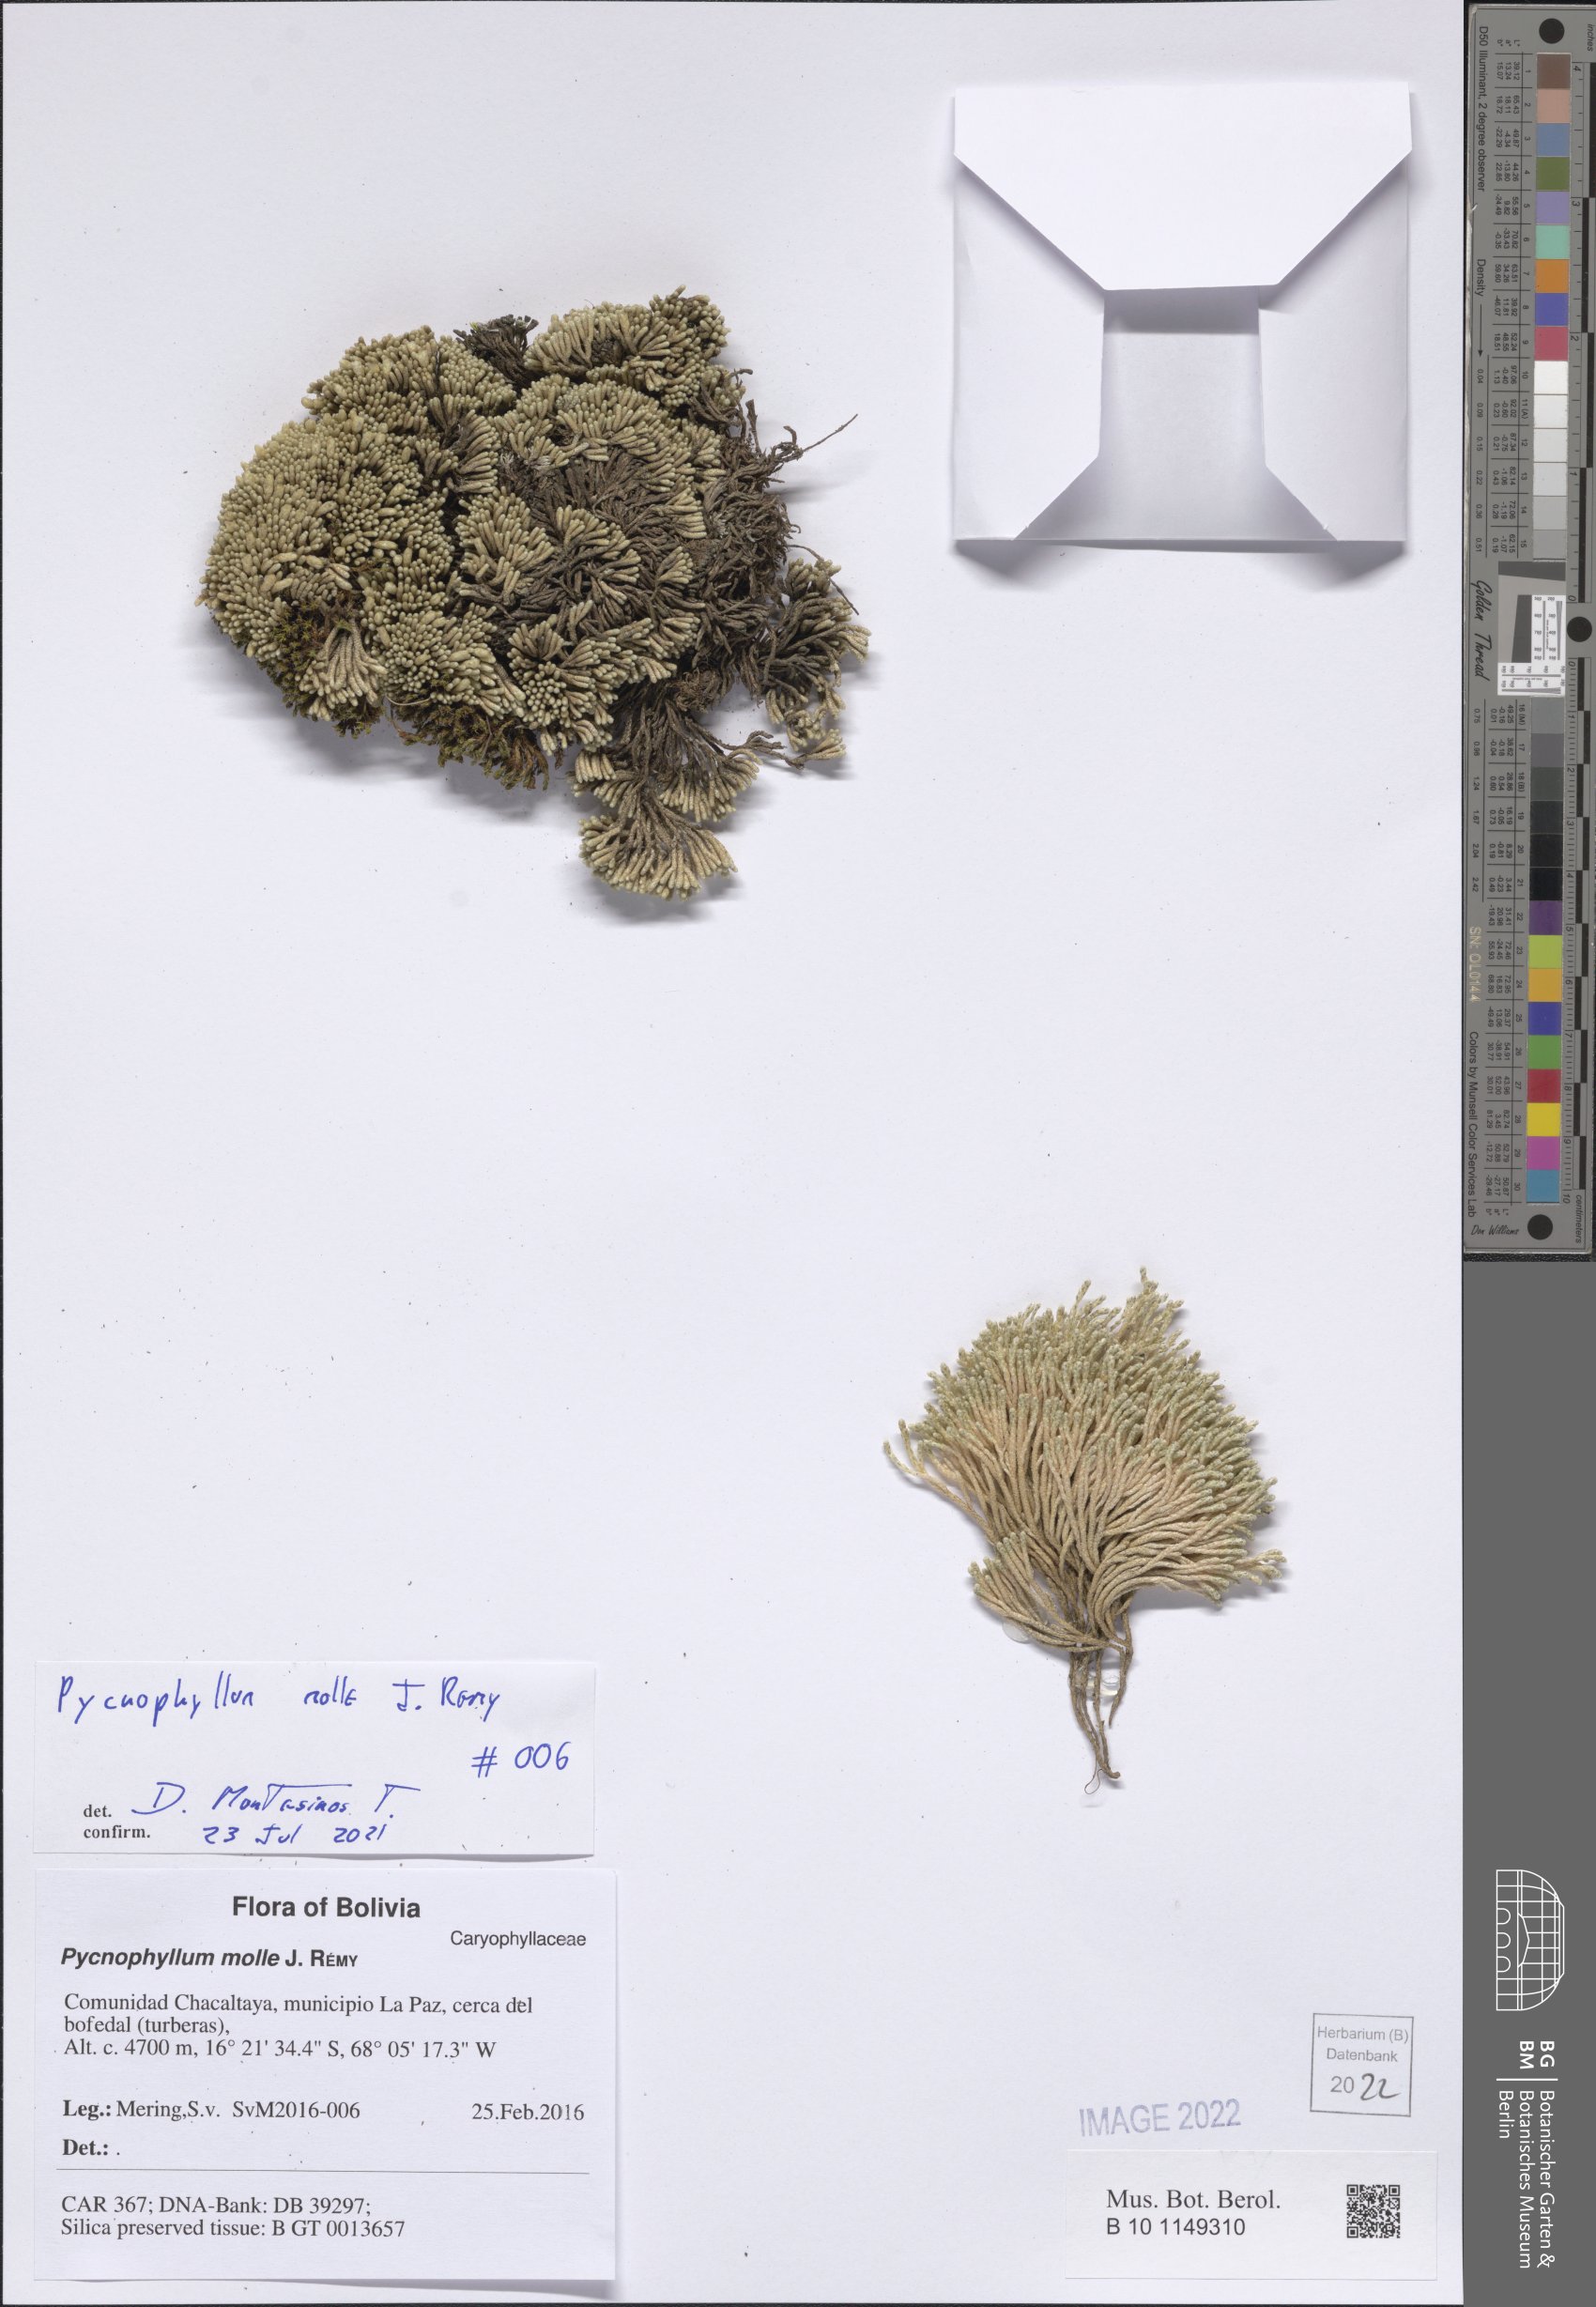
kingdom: Plantae
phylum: Tracheophyta
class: Magnoliopsida
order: Caryophyllales
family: Caryophyllaceae
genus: Pycnophyllum
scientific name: Pycnophyllum molle
